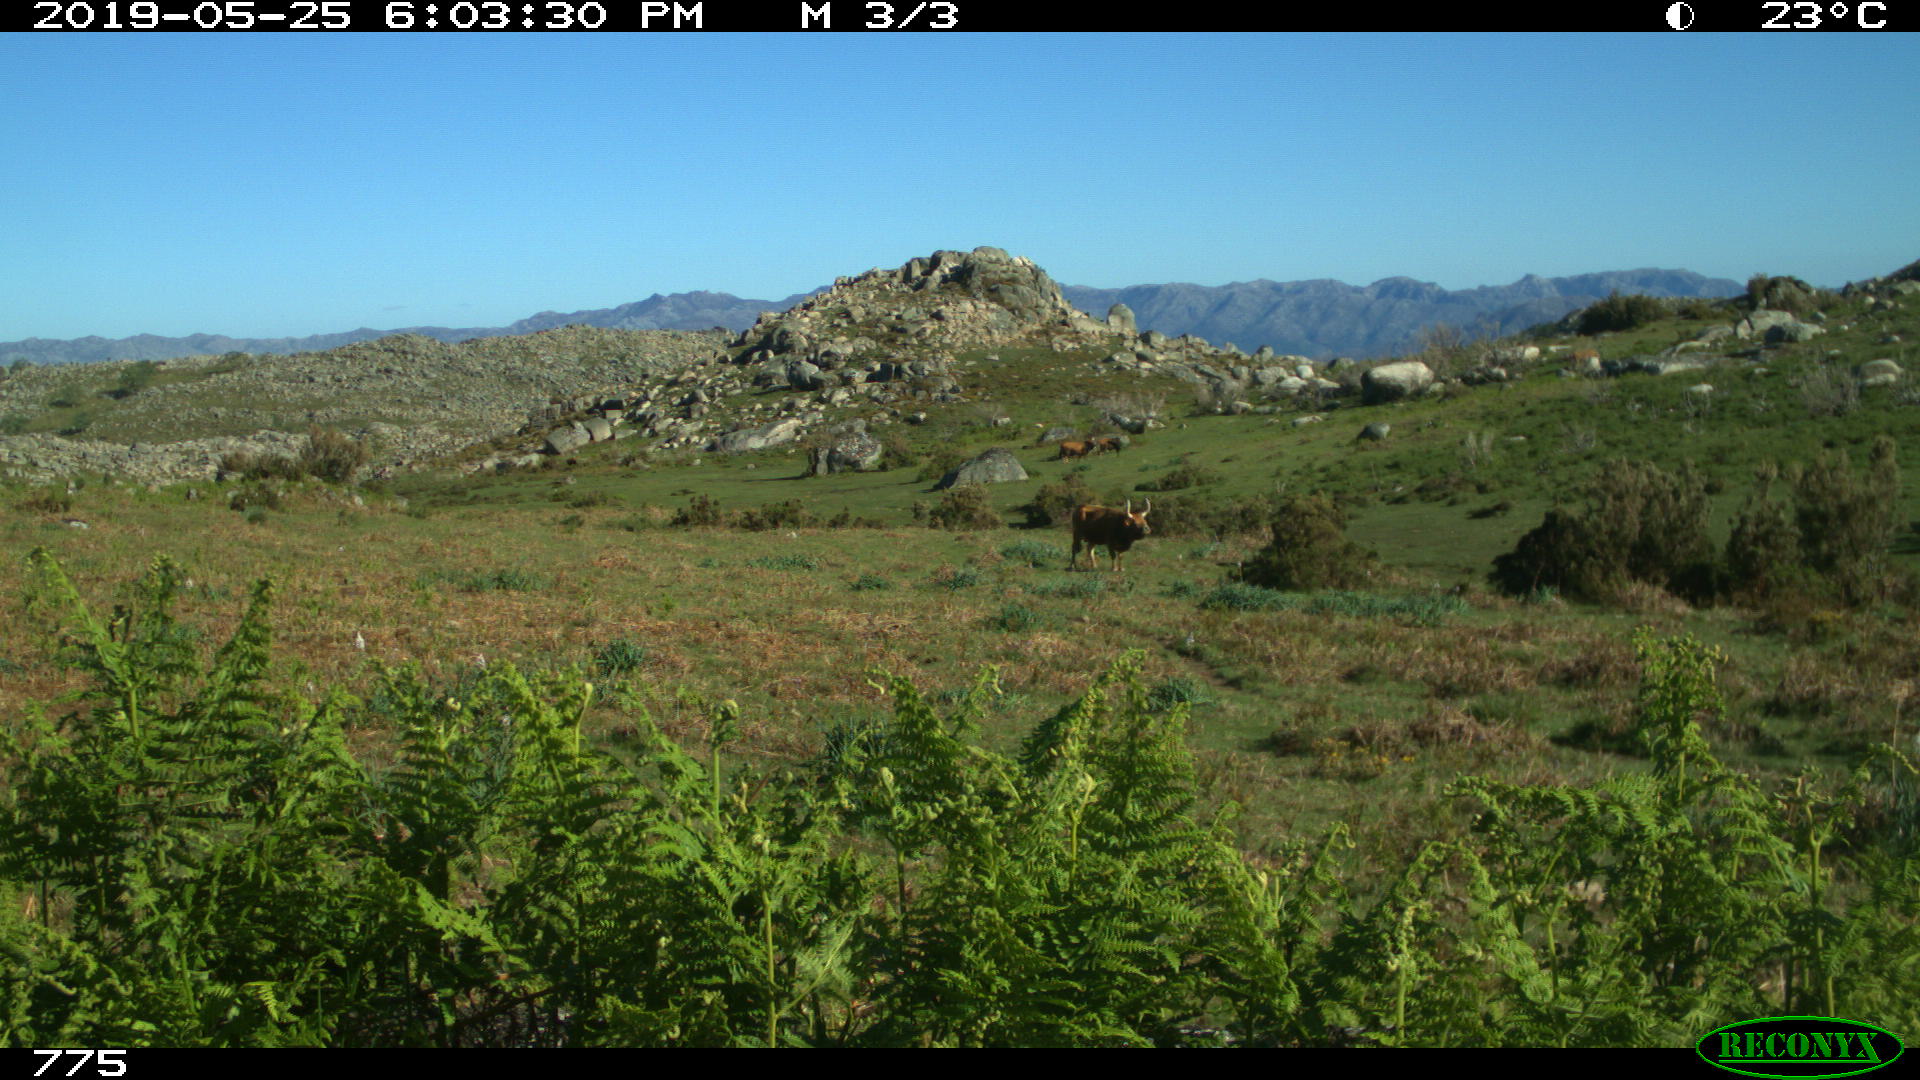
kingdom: Animalia
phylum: Chordata
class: Mammalia
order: Artiodactyla
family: Bovidae
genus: Bos
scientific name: Bos taurus
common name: Domesticated cattle
